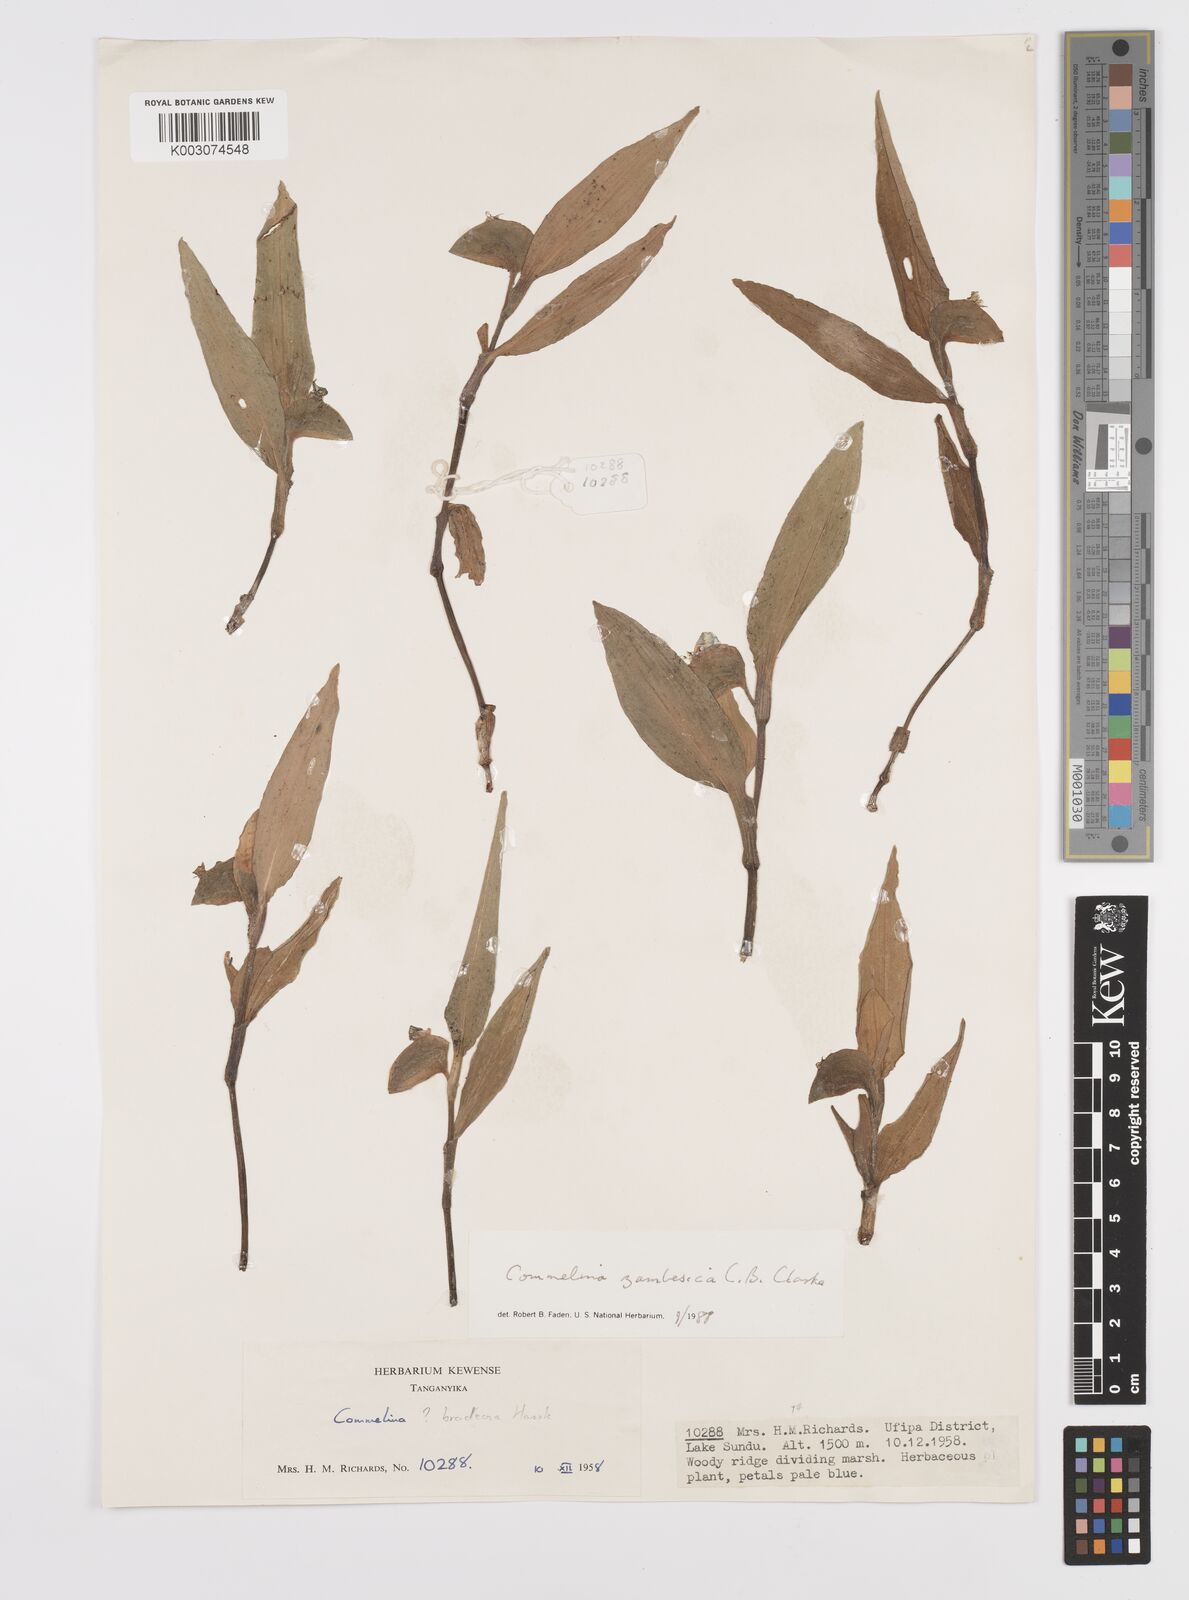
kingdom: Plantae
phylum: Tracheophyta
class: Liliopsida
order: Commelinales
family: Commelinaceae
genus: Commelina
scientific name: Commelina zambesica
